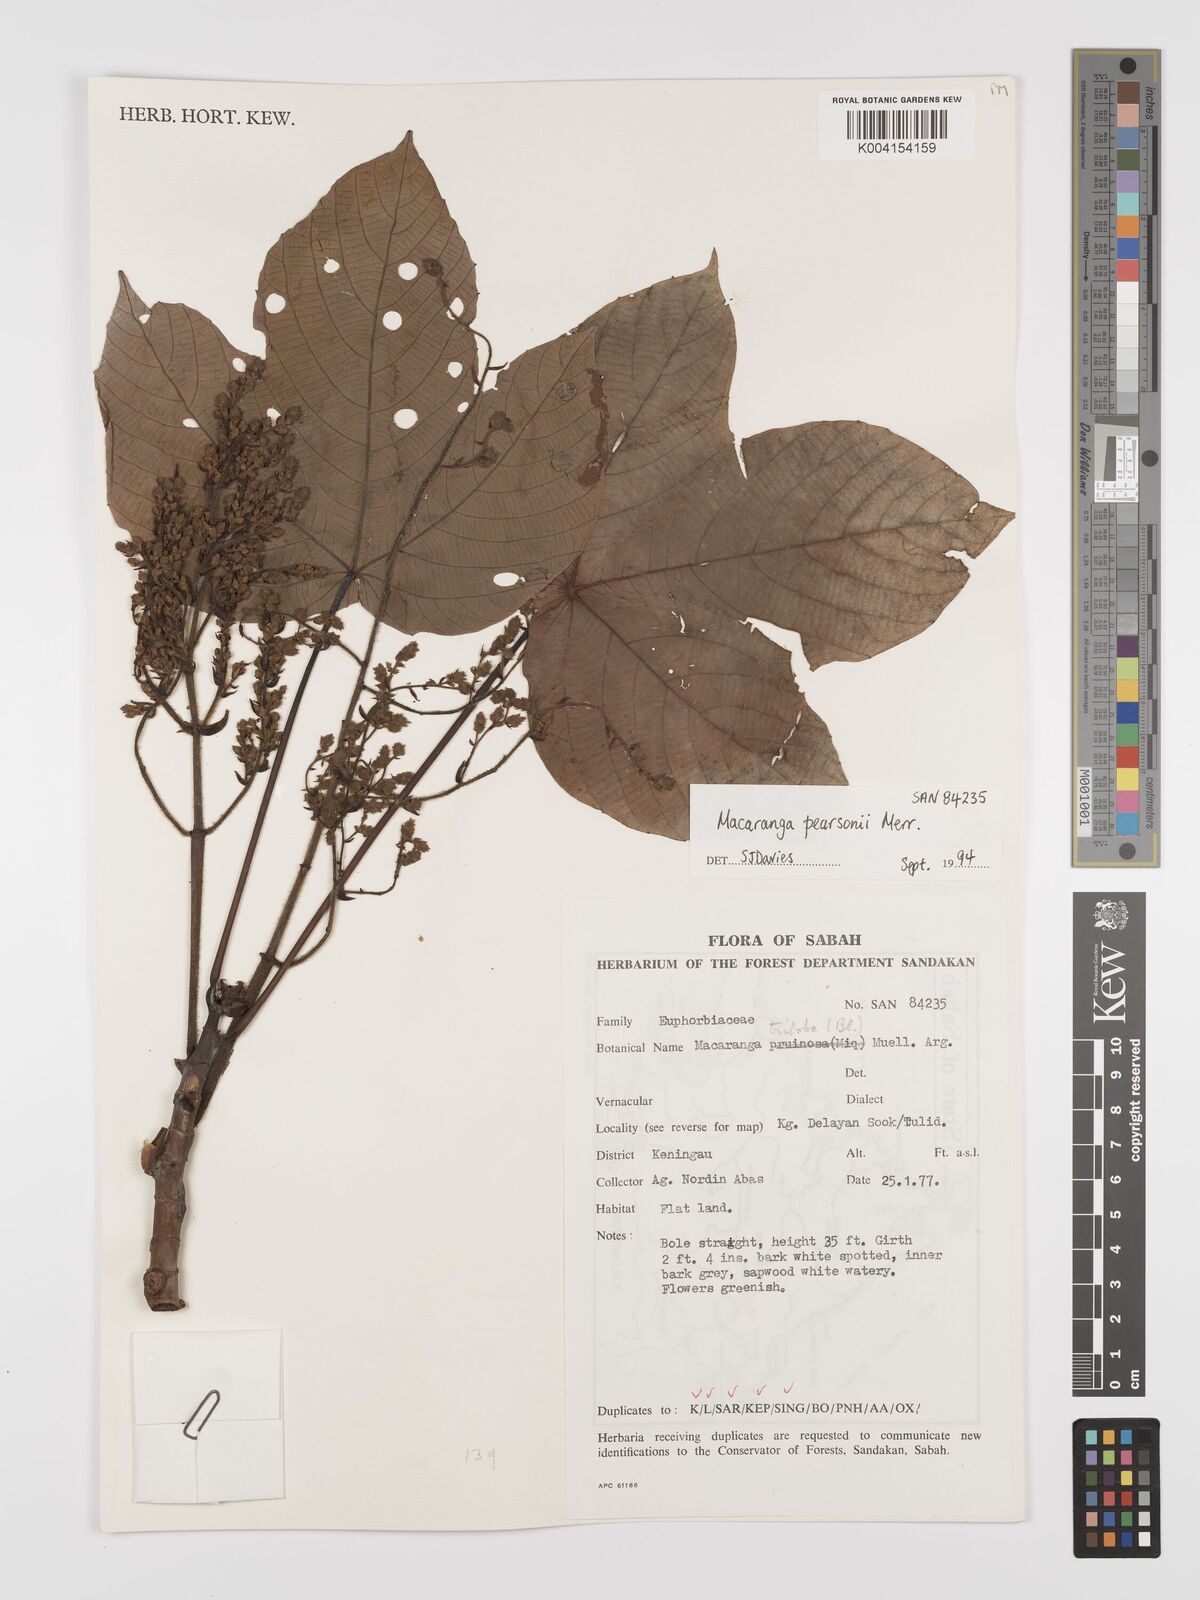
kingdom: Plantae
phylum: Tracheophyta
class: Magnoliopsida
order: Malpighiales
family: Euphorbiaceae
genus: Macaranga
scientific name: Macaranga pearsonii
